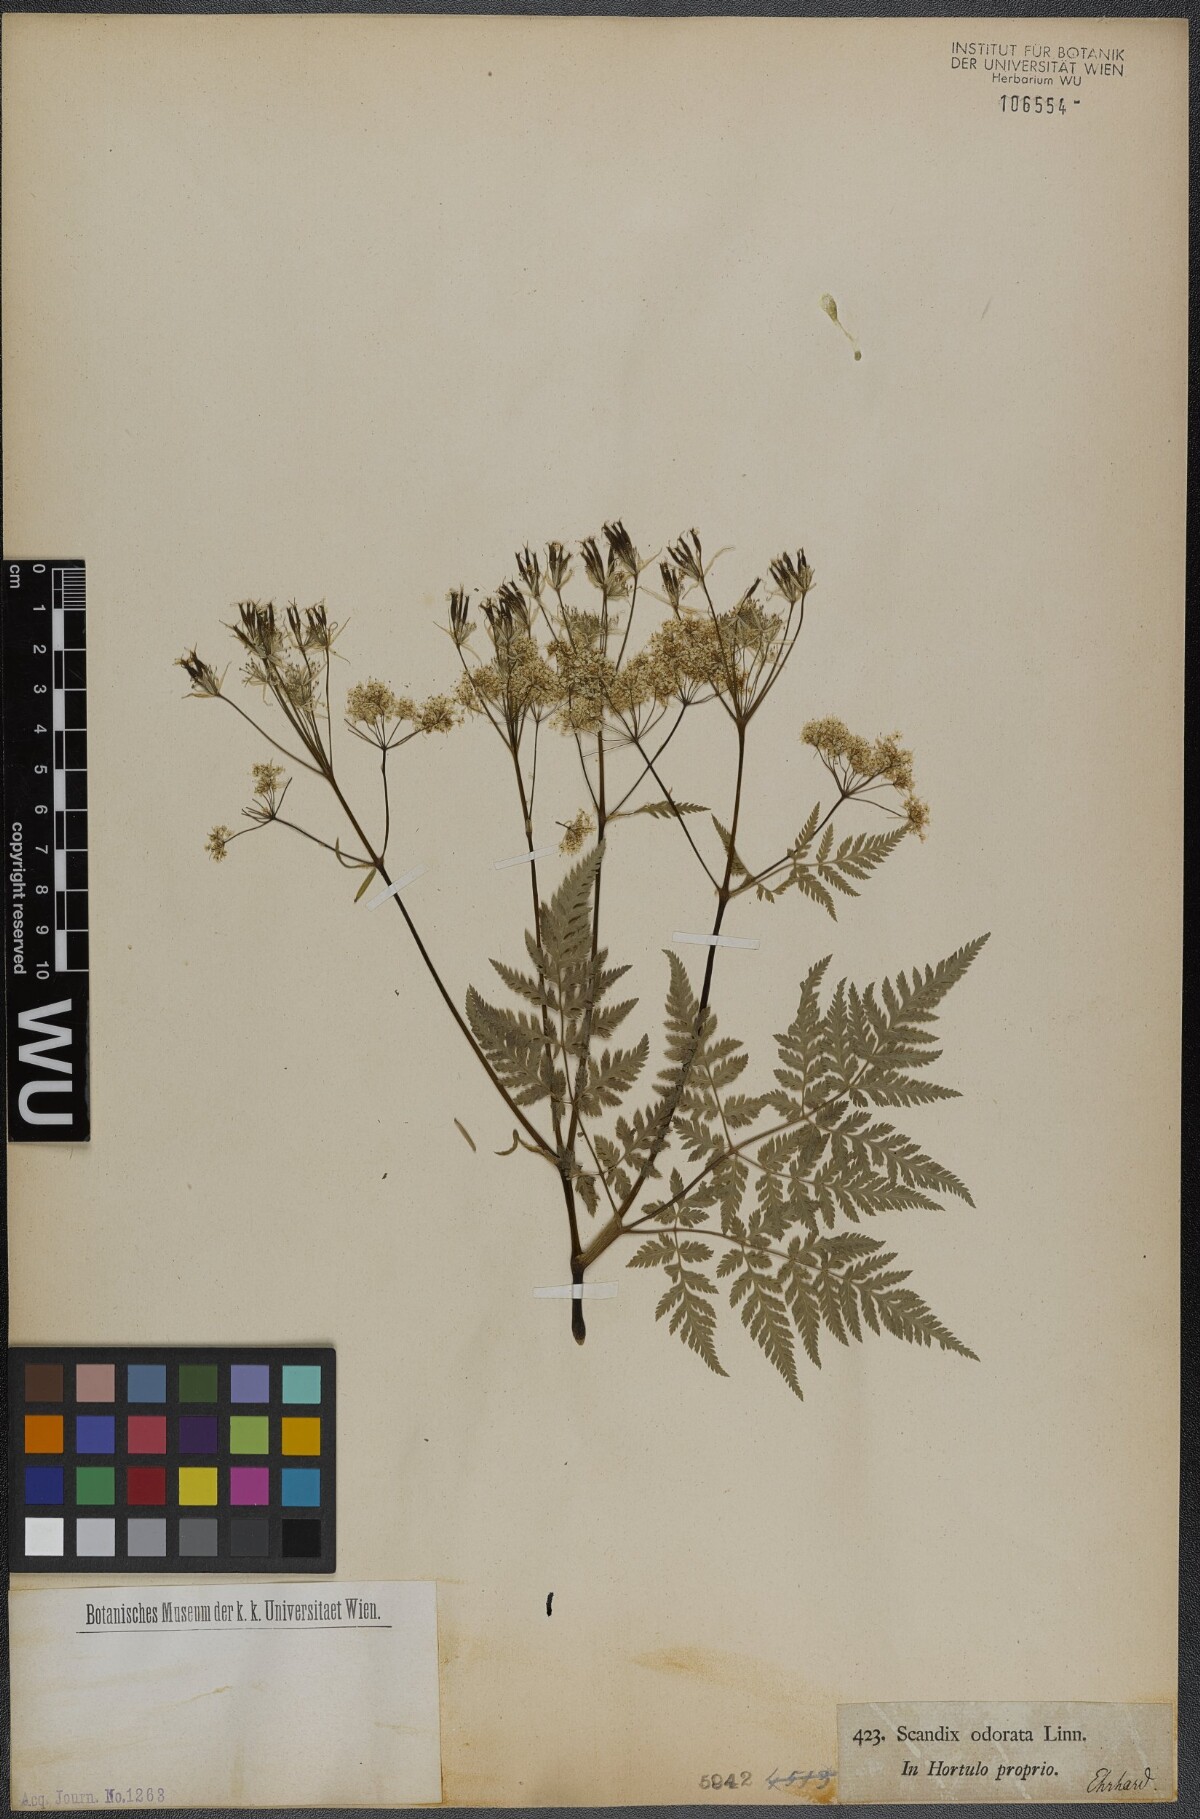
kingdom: Plantae
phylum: Tracheophyta
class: Magnoliopsida
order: Apiales
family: Apiaceae
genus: Myrrhis
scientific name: Myrrhis odorata
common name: Sweet cicely
